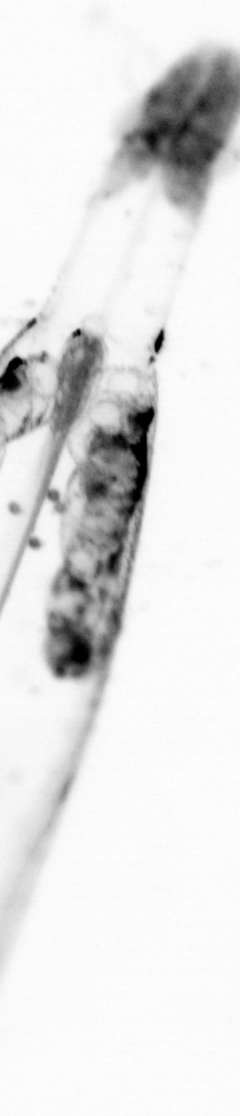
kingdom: Animalia
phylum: Chaetognatha
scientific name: Chaetognatha
